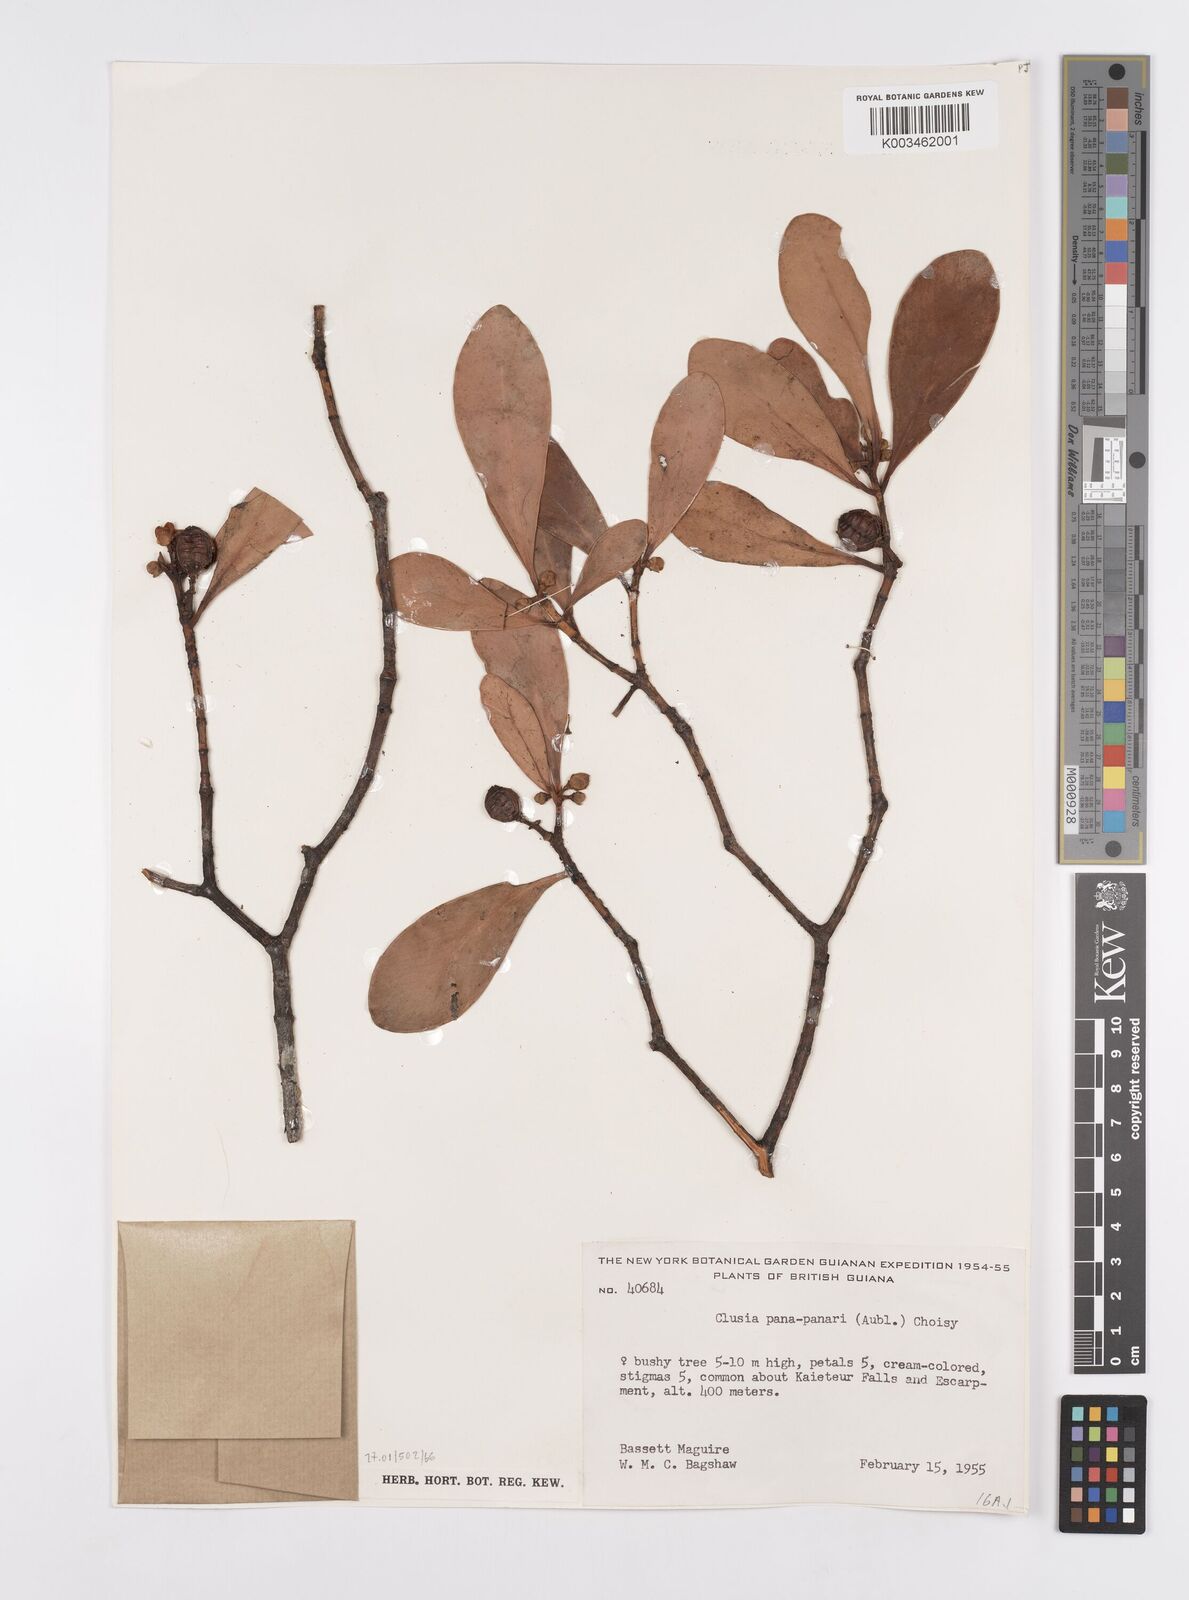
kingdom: Plantae
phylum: Tracheophyta
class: Magnoliopsida
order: Malpighiales
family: Clusiaceae
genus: Clusia
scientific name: Clusia panapanari
